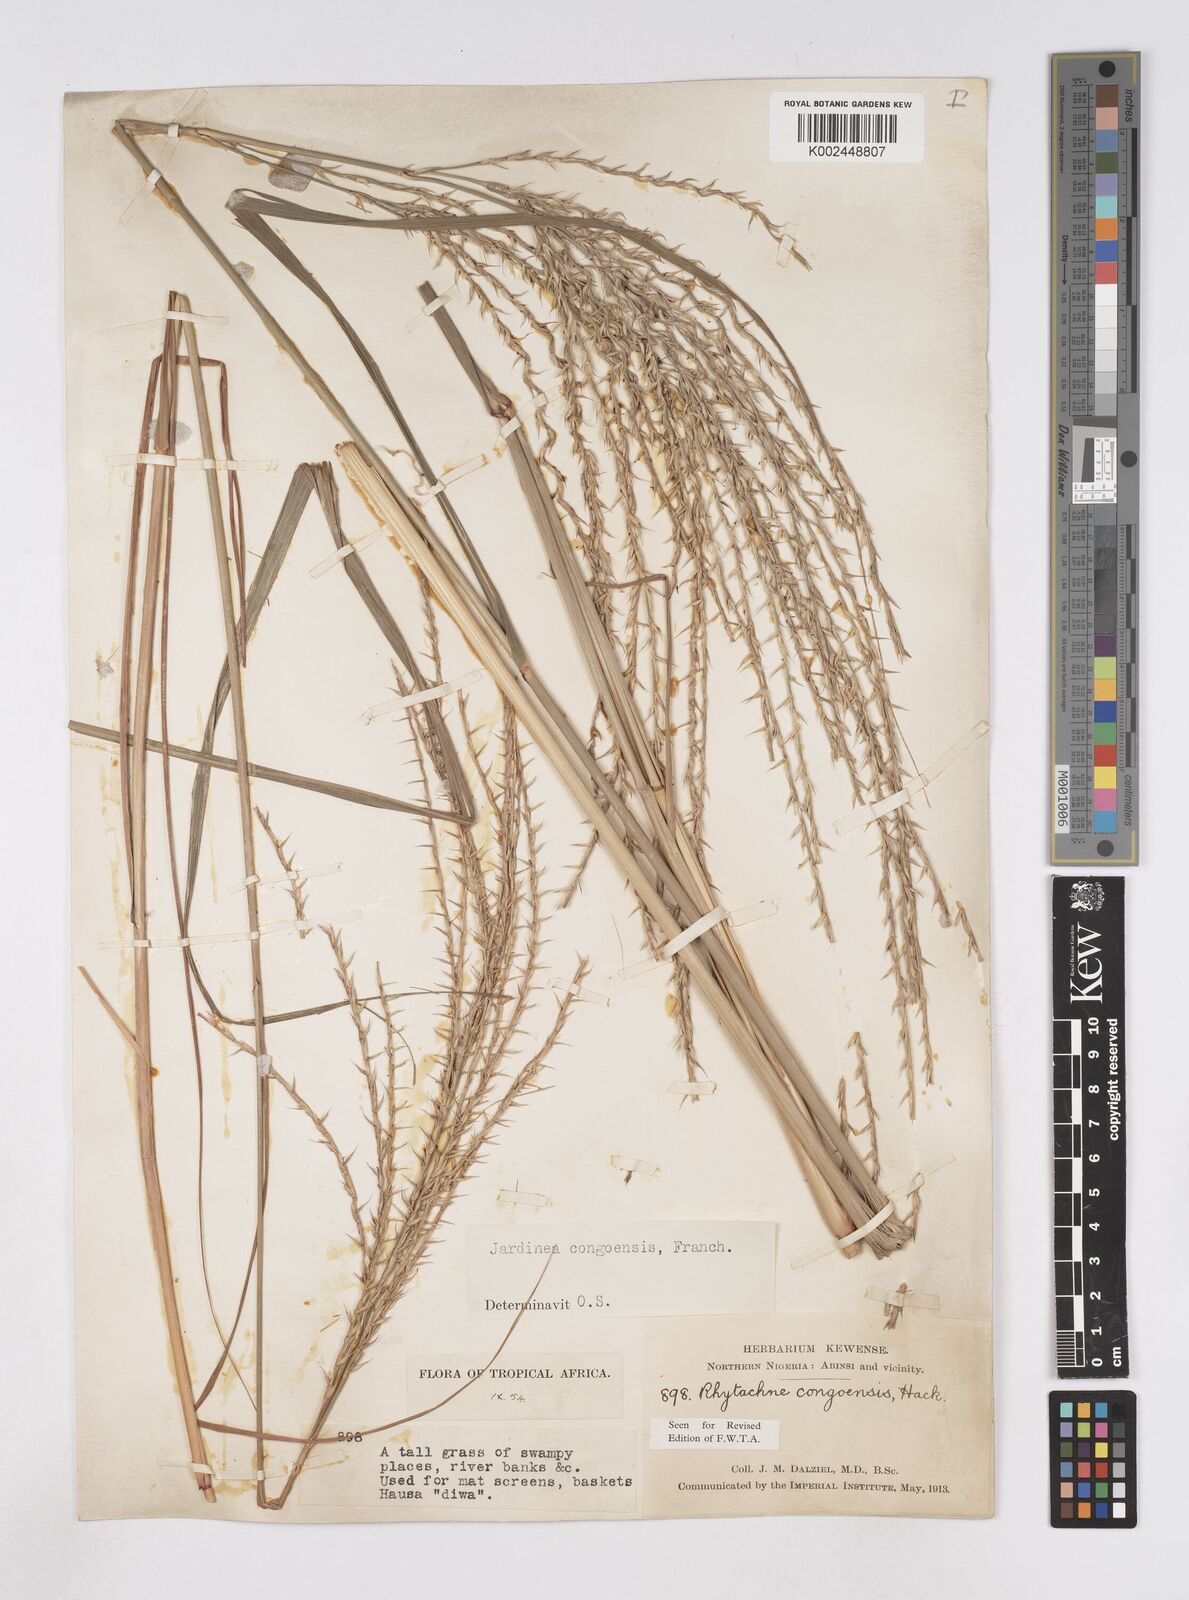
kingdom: Plantae
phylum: Tracheophyta
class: Liliopsida
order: Poales
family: Poaceae
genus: Phacelurus
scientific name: Phacelurus gabonensis
